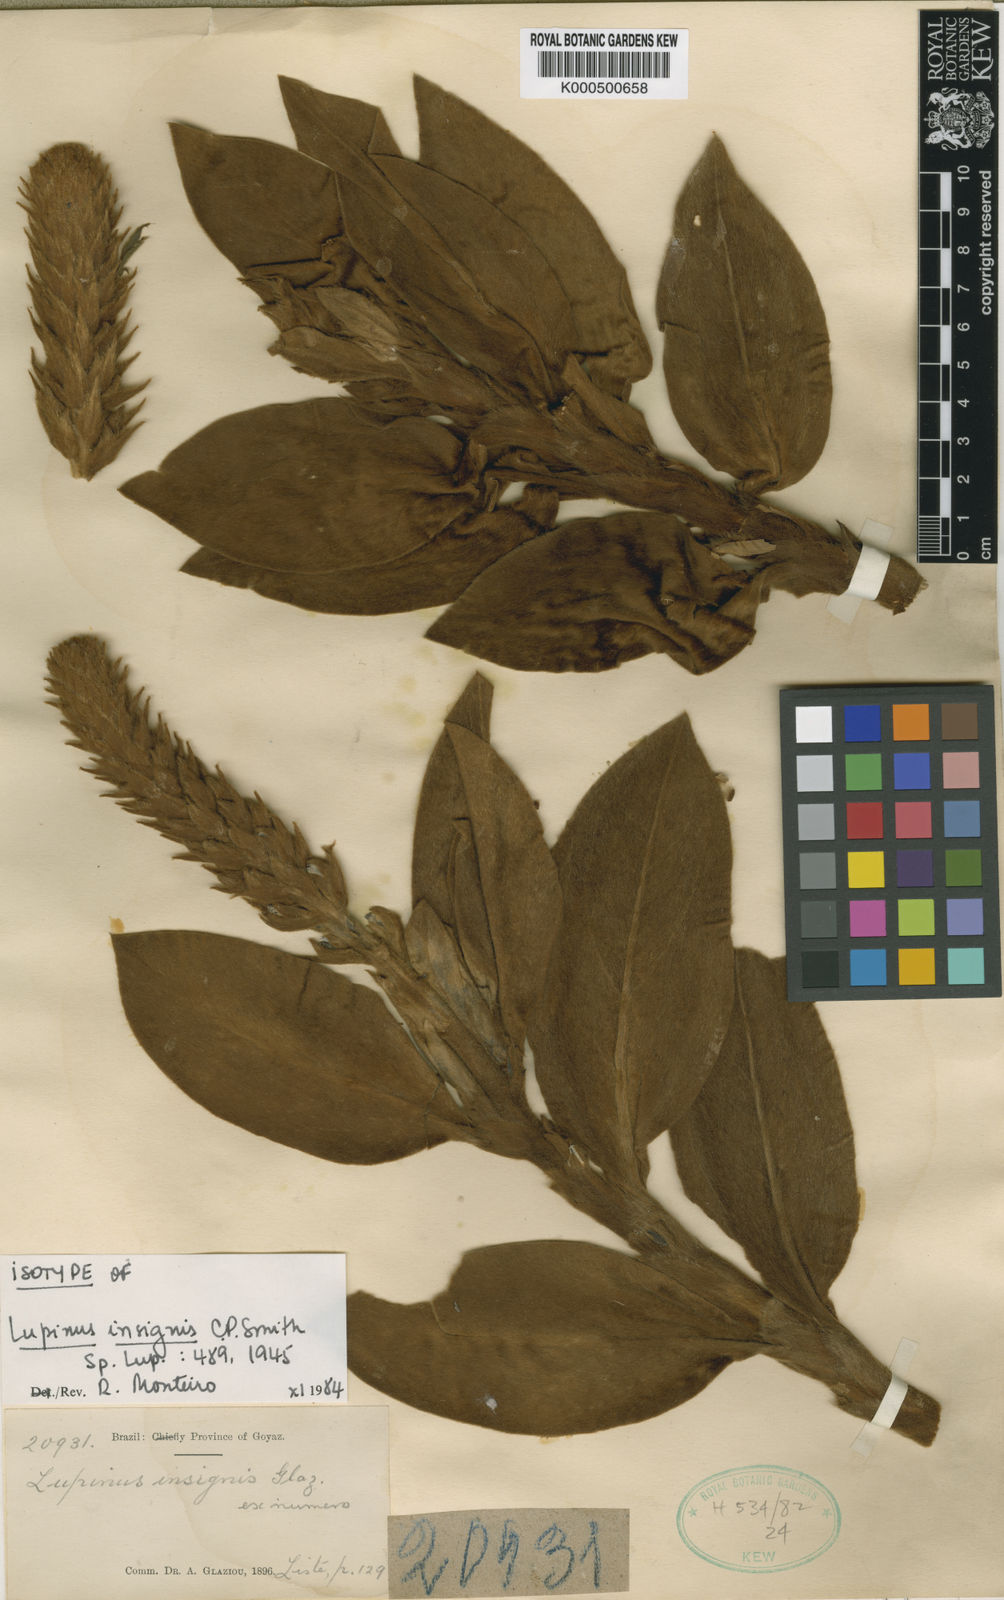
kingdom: Plantae
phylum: Tracheophyta
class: Magnoliopsida
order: Fabales
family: Fabaceae
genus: Lupinus
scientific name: Lupinus insignis
